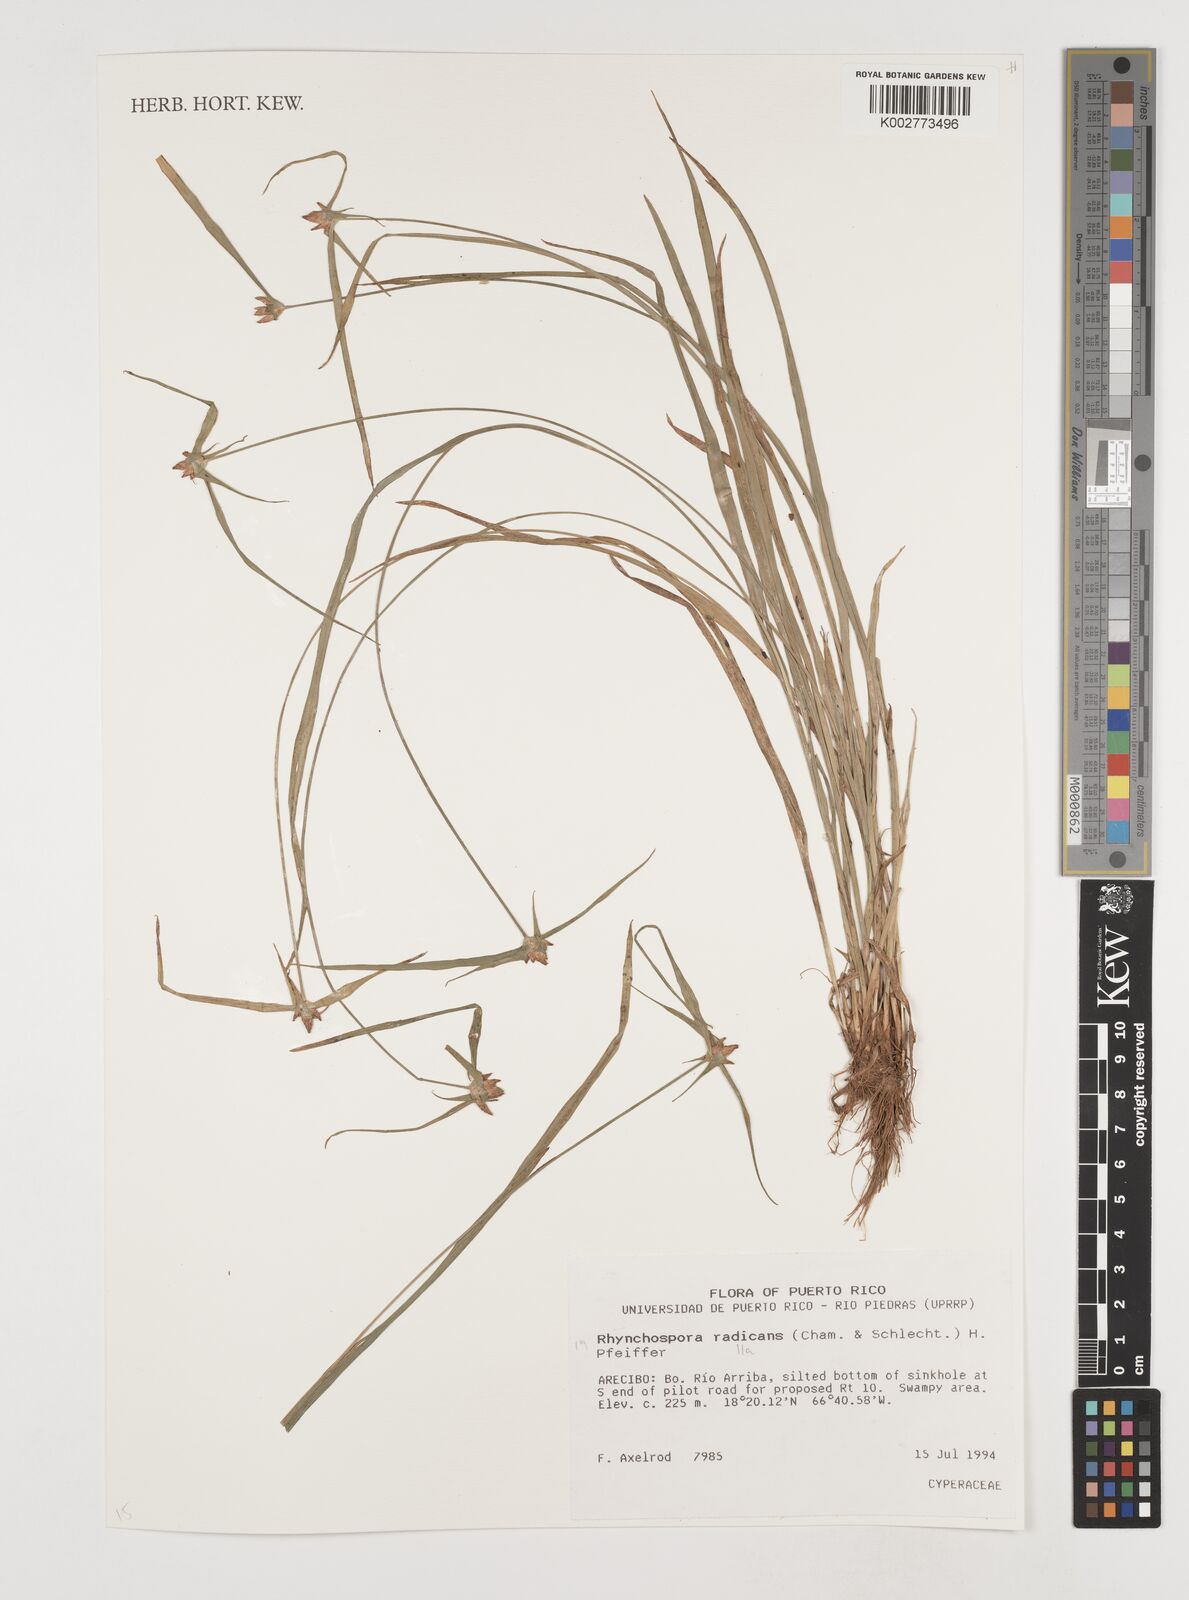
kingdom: Plantae
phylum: Tracheophyta
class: Liliopsida
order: Poales
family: Cyperaceae
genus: Rhynchospora
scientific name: Rhynchospora radicans
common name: Tropical whitetop
